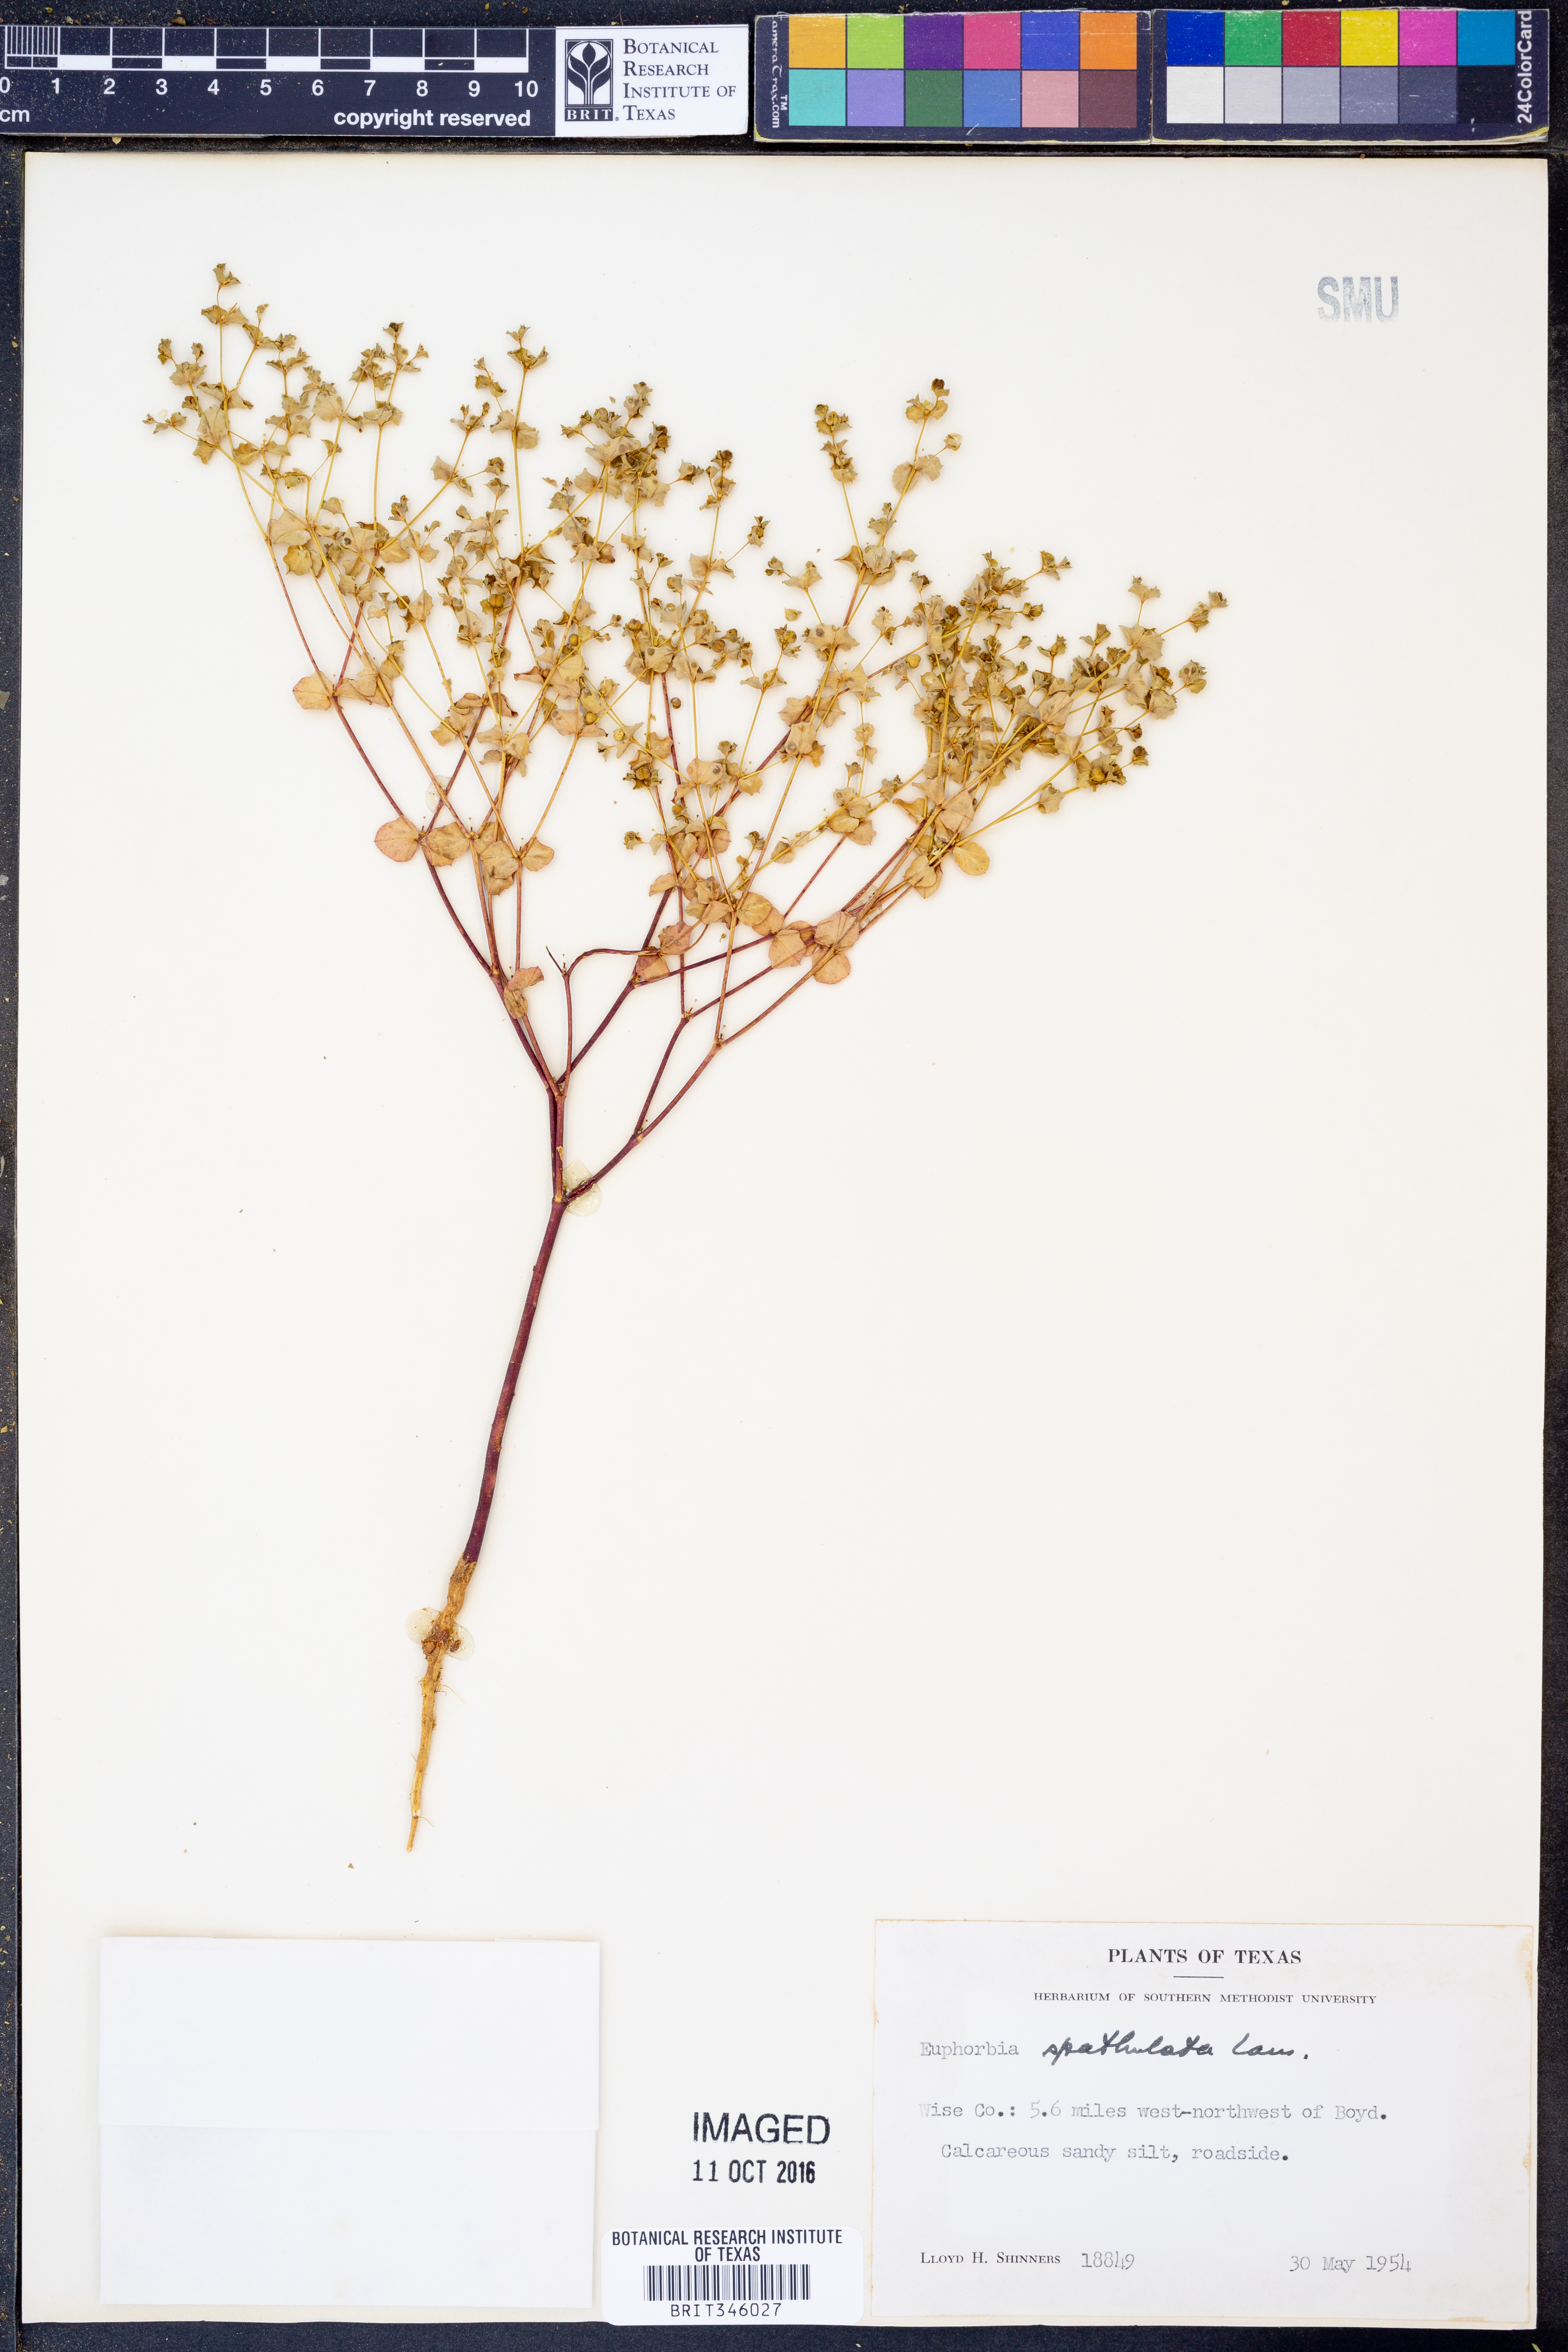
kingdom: Plantae
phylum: Tracheophyta
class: Magnoliopsida
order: Malpighiales
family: Euphorbiaceae
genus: Euphorbia
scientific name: Euphorbia spathulata
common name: Blunt spurge
